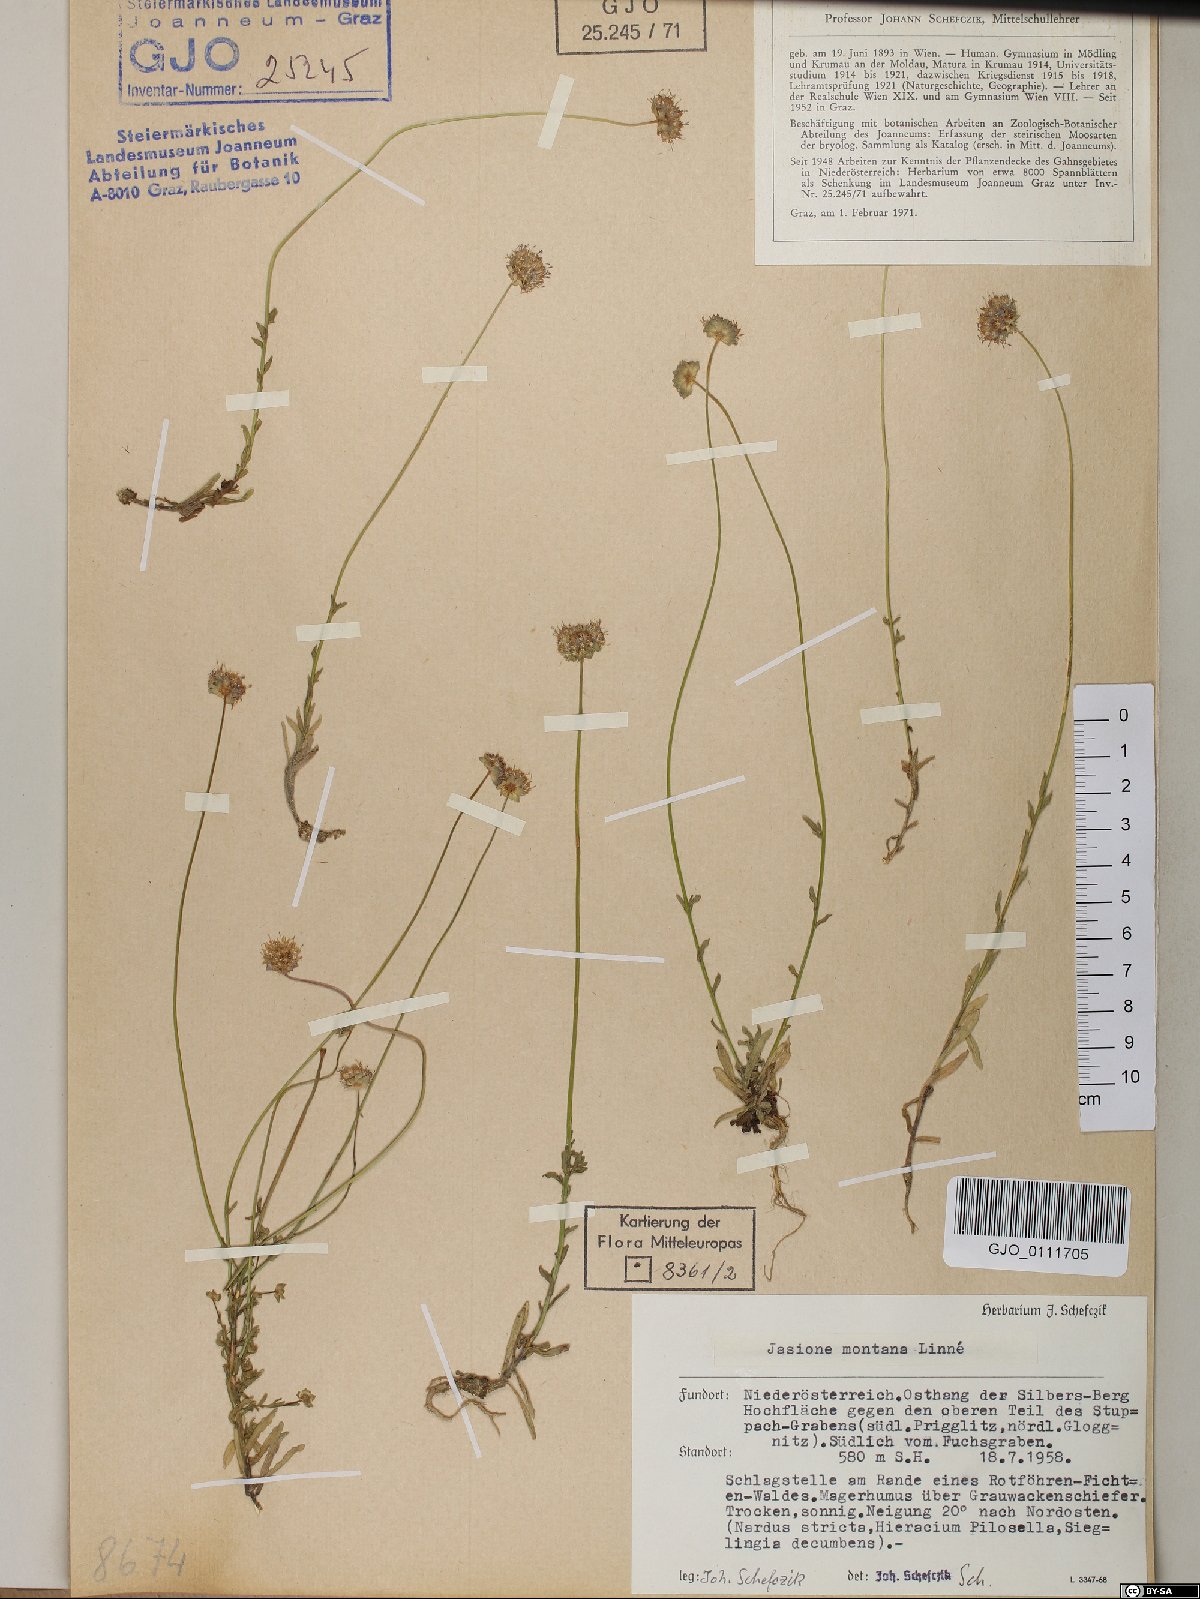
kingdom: Plantae
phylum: Tracheophyta
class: Magnoliopsida
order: Asterales
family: Campanulaceae
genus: Jasione
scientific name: Jasione montana
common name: Sheep's-bit
